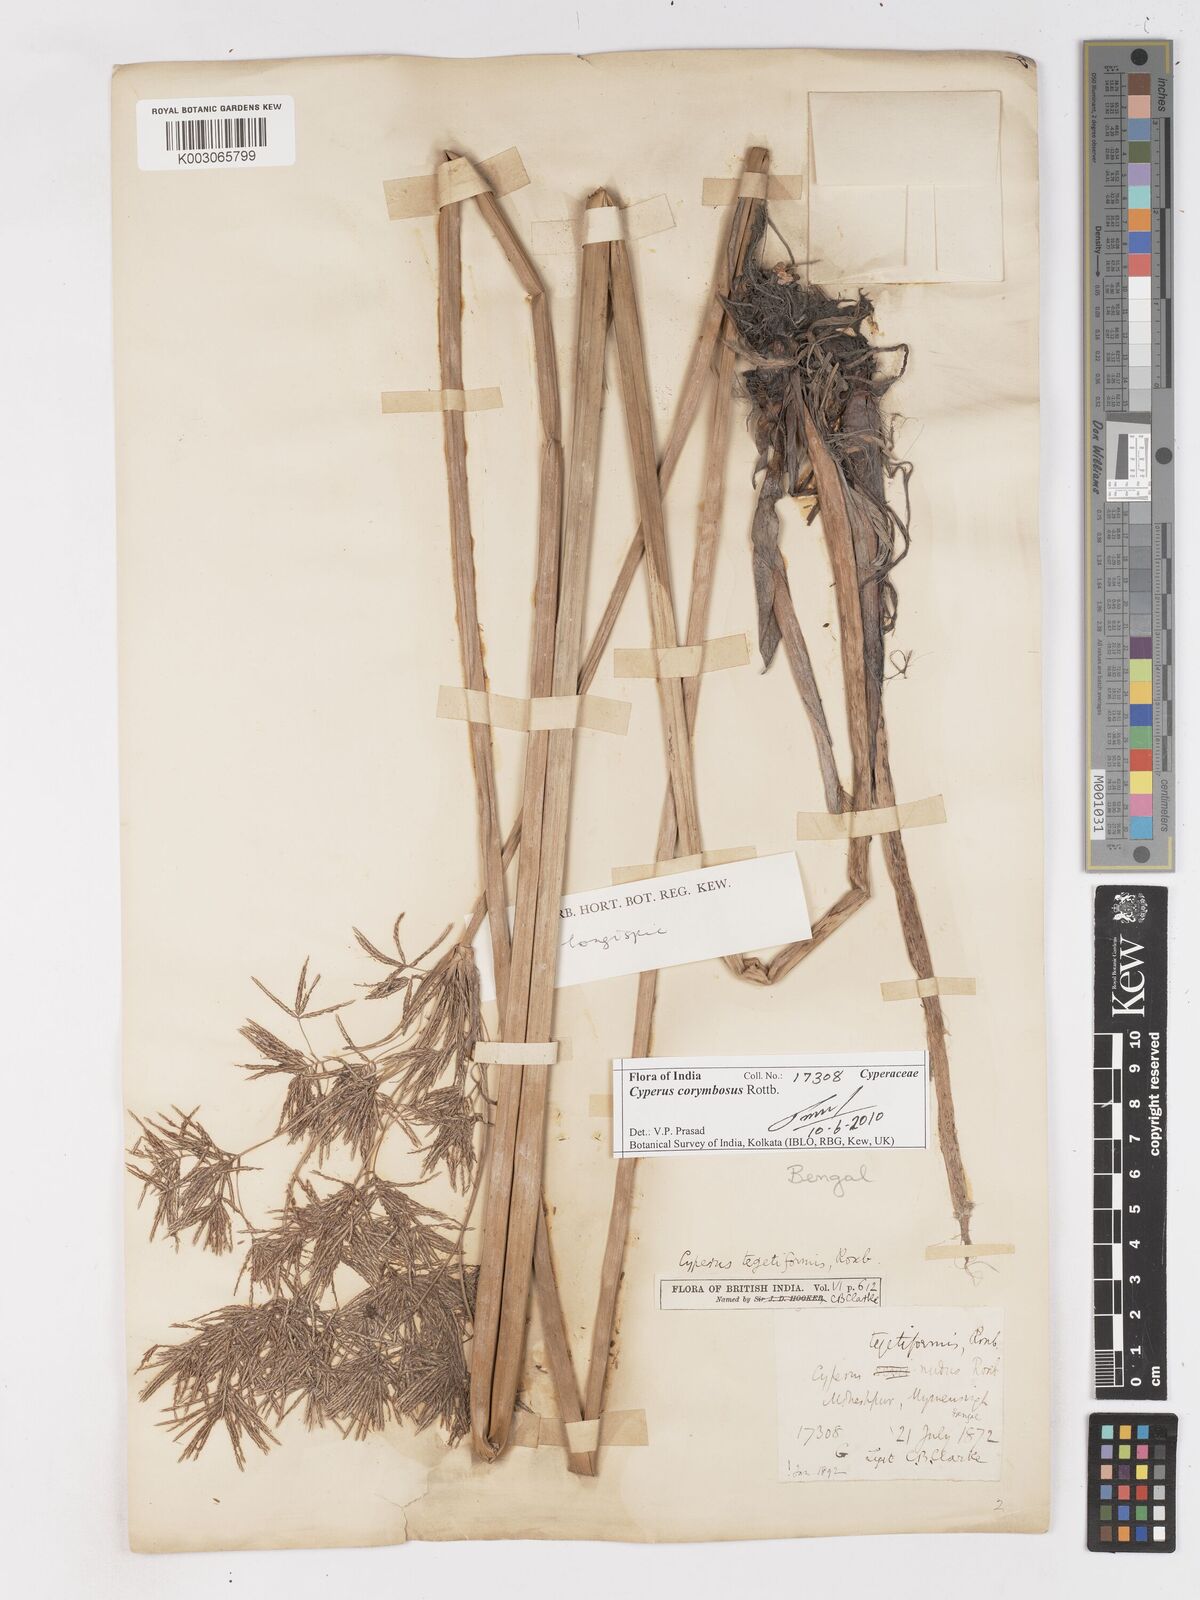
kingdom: Plantae
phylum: Tracheophyta
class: Liliopsida
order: Poales
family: Cyperaceae
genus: Cyperus
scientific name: Cyperus corymbosus
